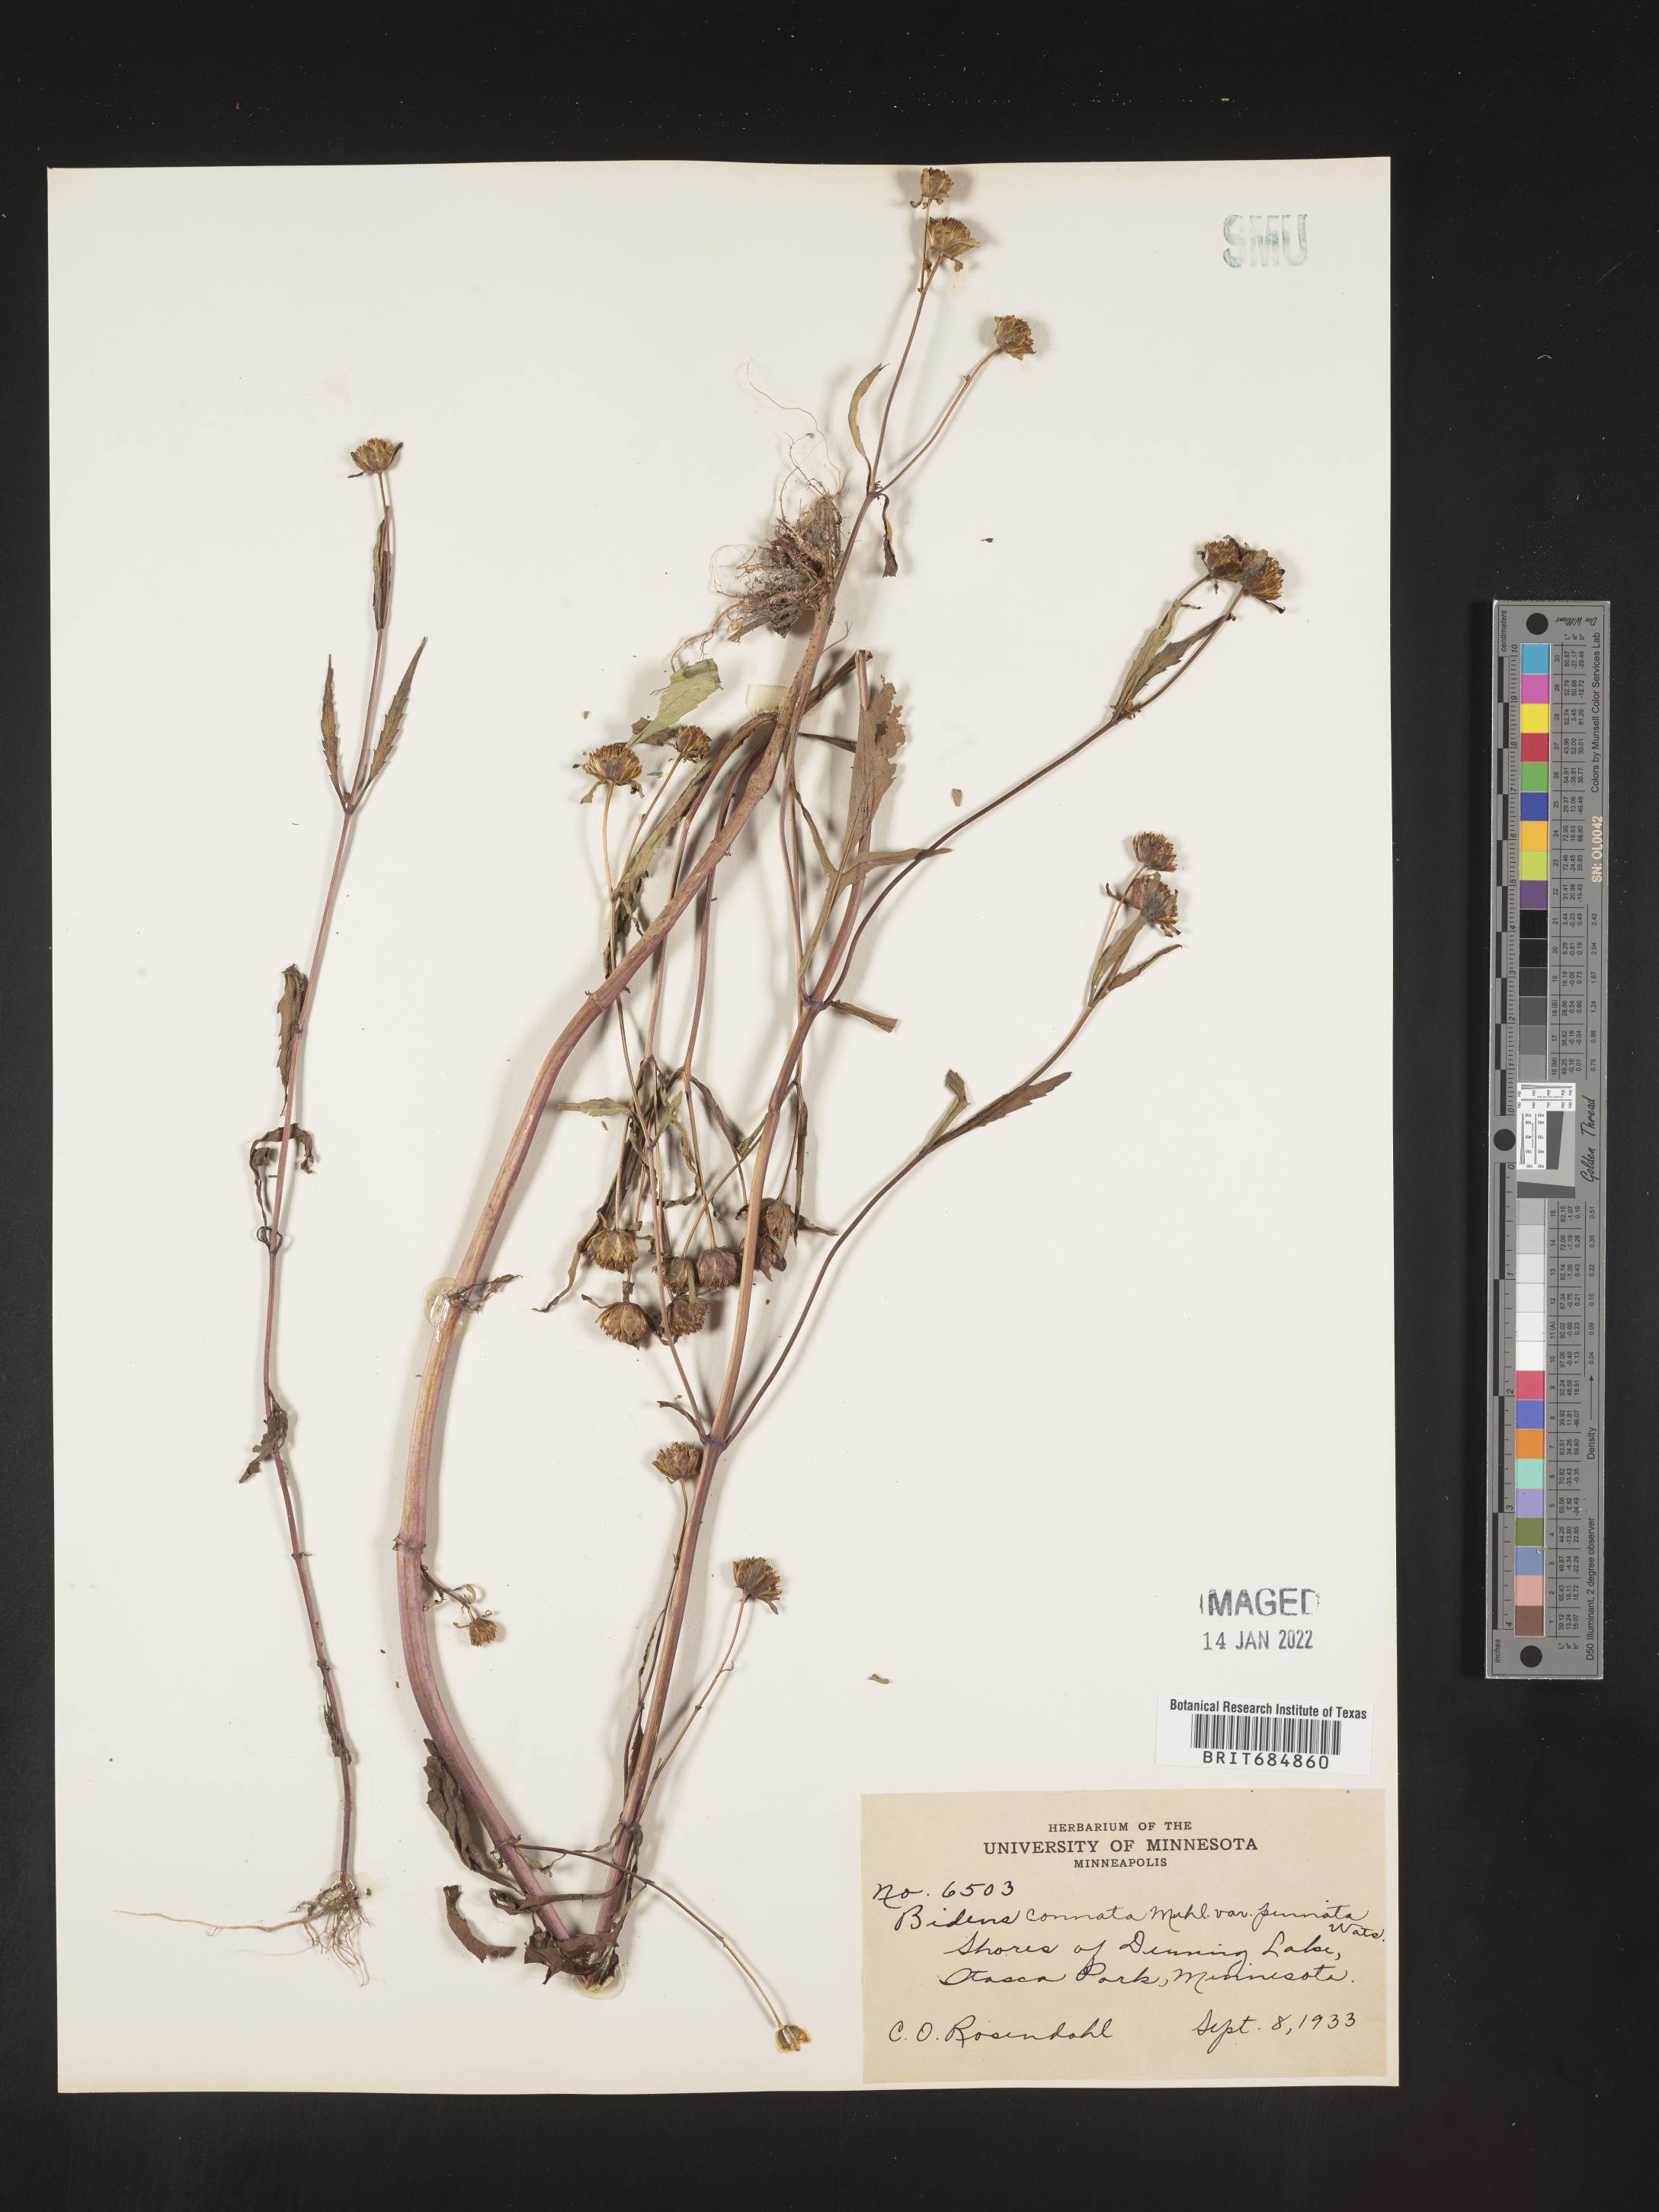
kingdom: Plantae
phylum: Tracheophyta
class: Magnoliopsida
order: Asterales
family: Asteraceae
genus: Bidens
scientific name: Bidens tripartita
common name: Trifid bur-marigold
